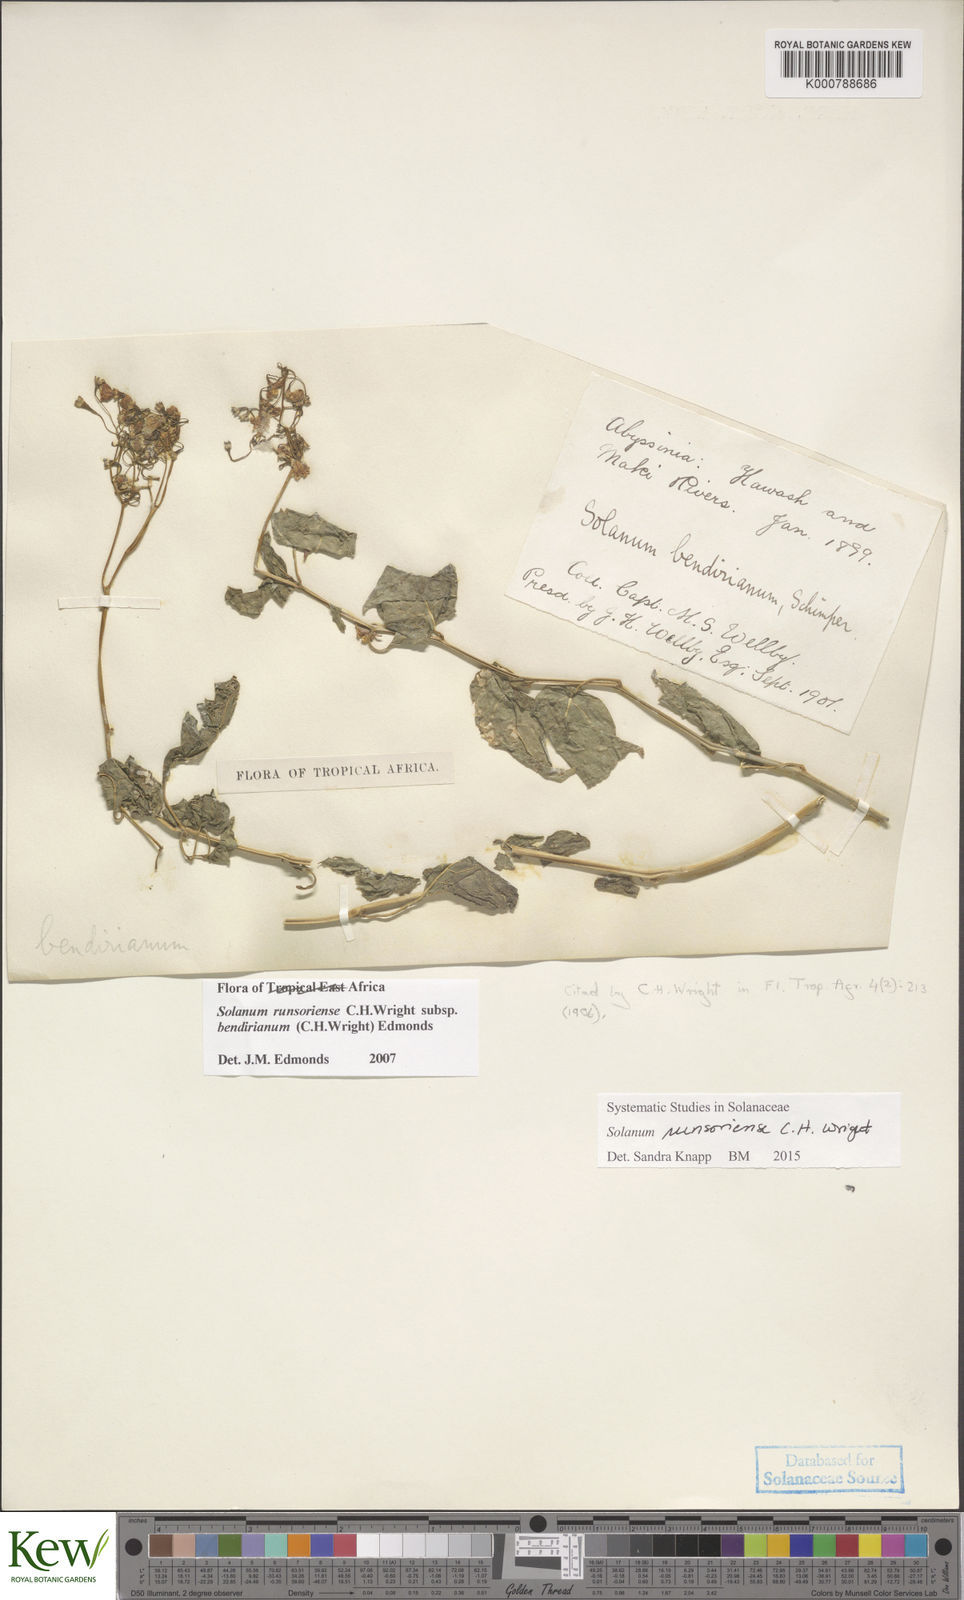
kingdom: Plantae
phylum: Tracheophyta
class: Magnoliopsida
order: Solanales
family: Solanaceae
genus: Solanum
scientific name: Solanum runsoriense
